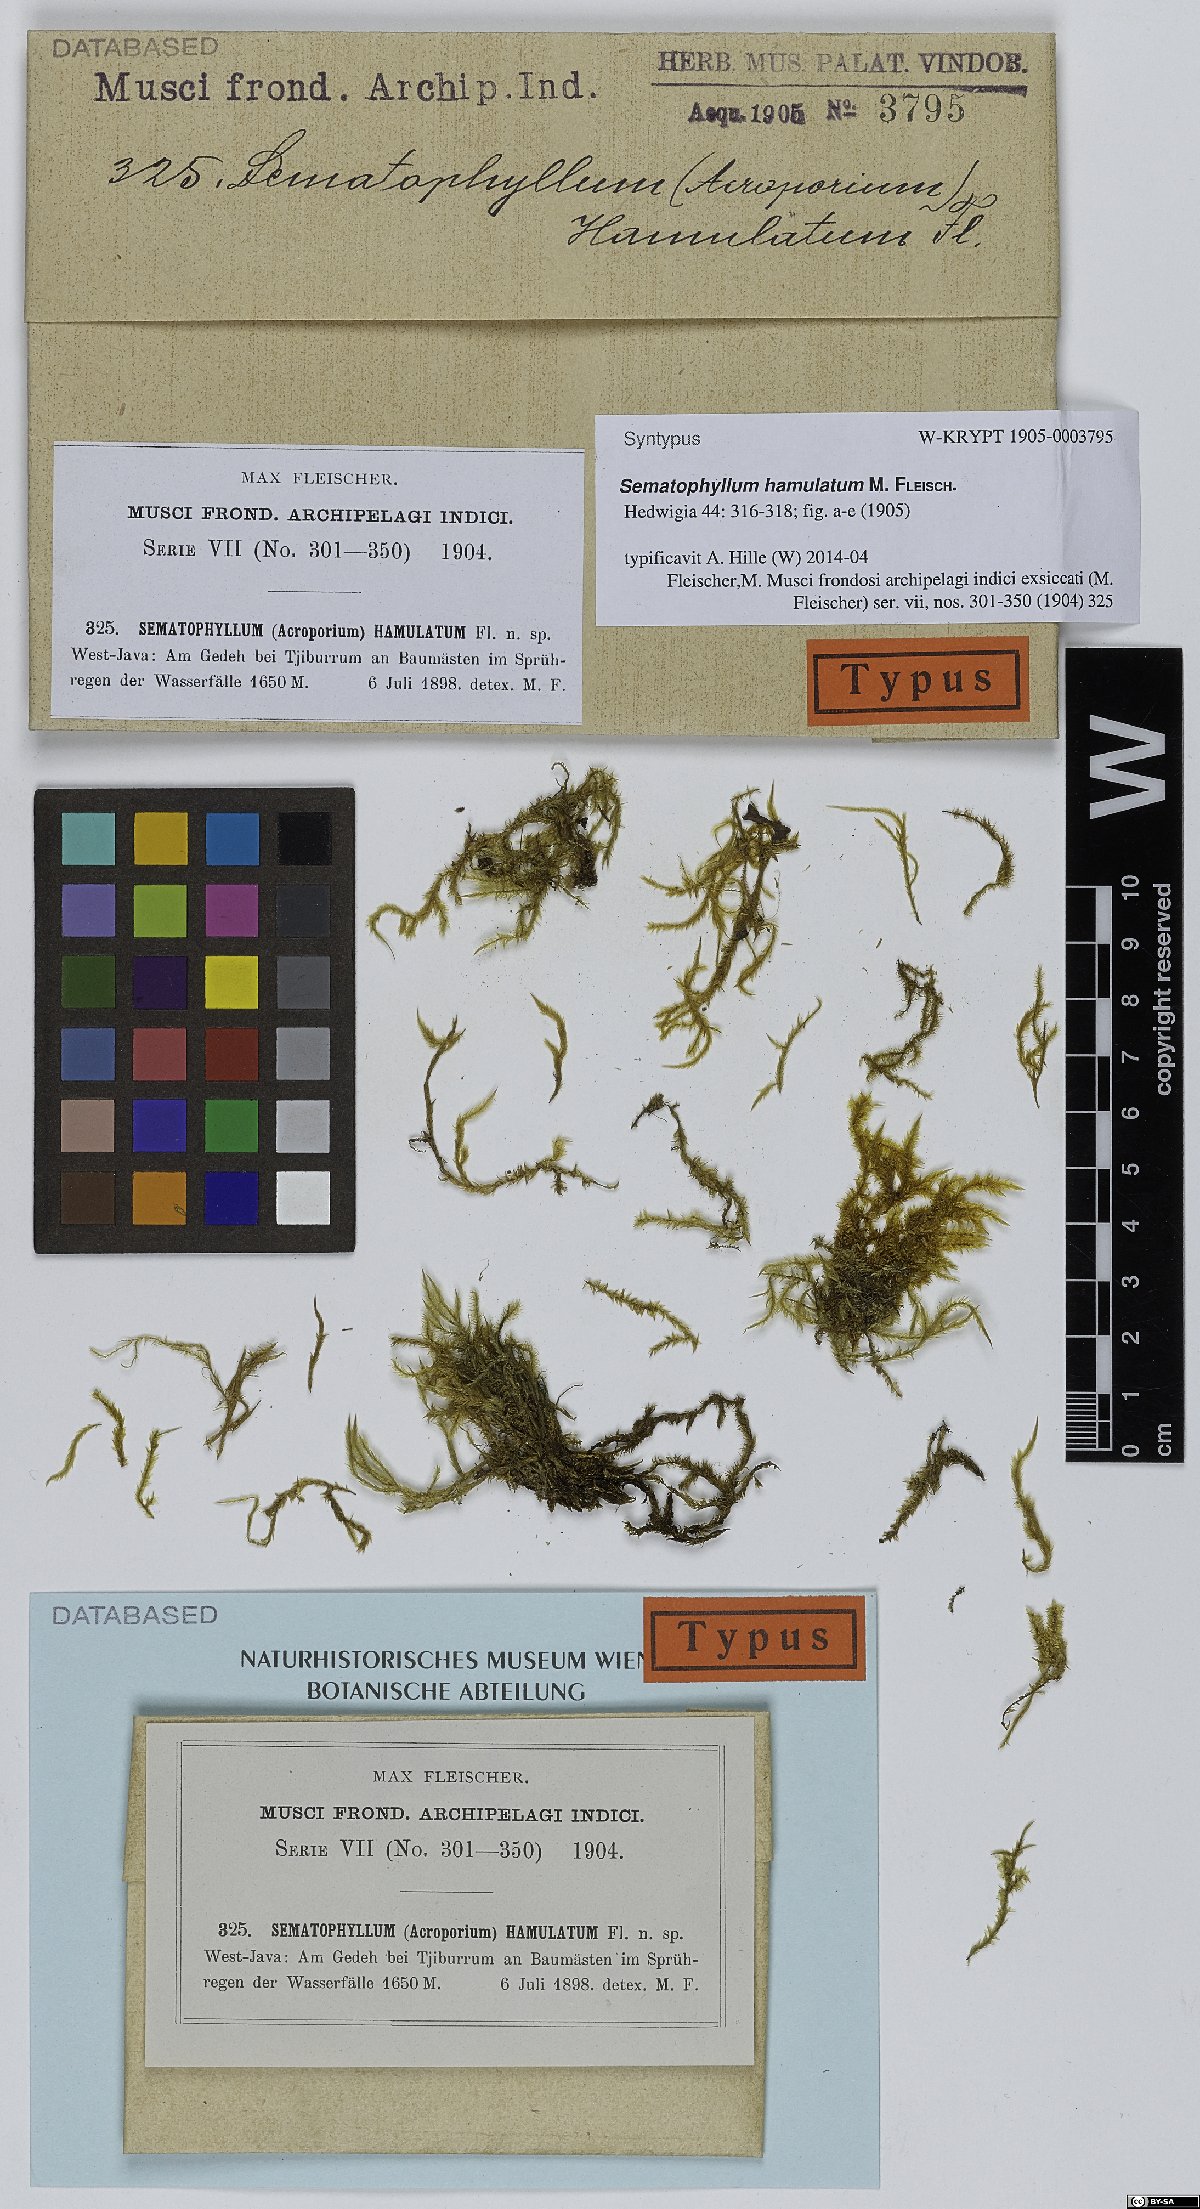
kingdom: Plantae
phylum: Bryophyta
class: Bryopsida
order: Hypnales
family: Sematophyllaceae
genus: Acroporium
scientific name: Acroporium hyalinum
